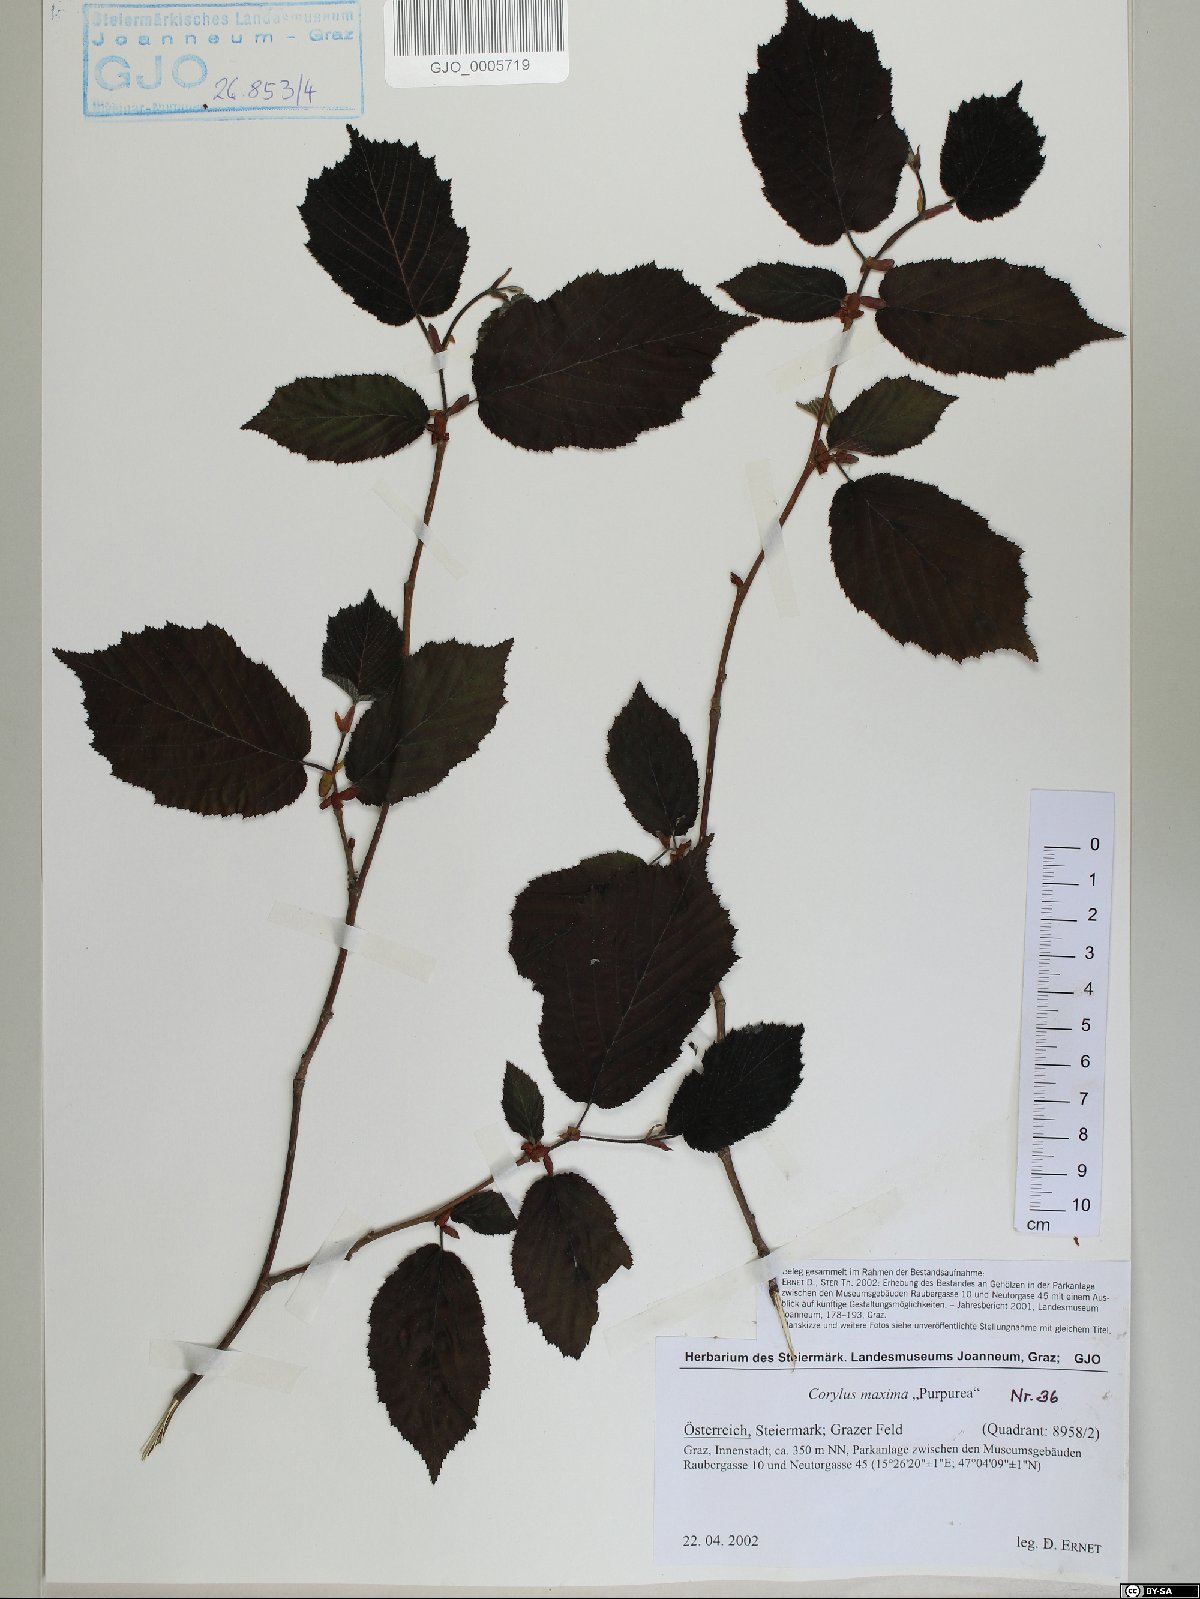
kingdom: Plantae
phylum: Tracheophyta
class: Magnoliopsida
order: Fagales
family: Betulaceae
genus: Corylus
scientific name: Corylus maxima
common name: Filbert
